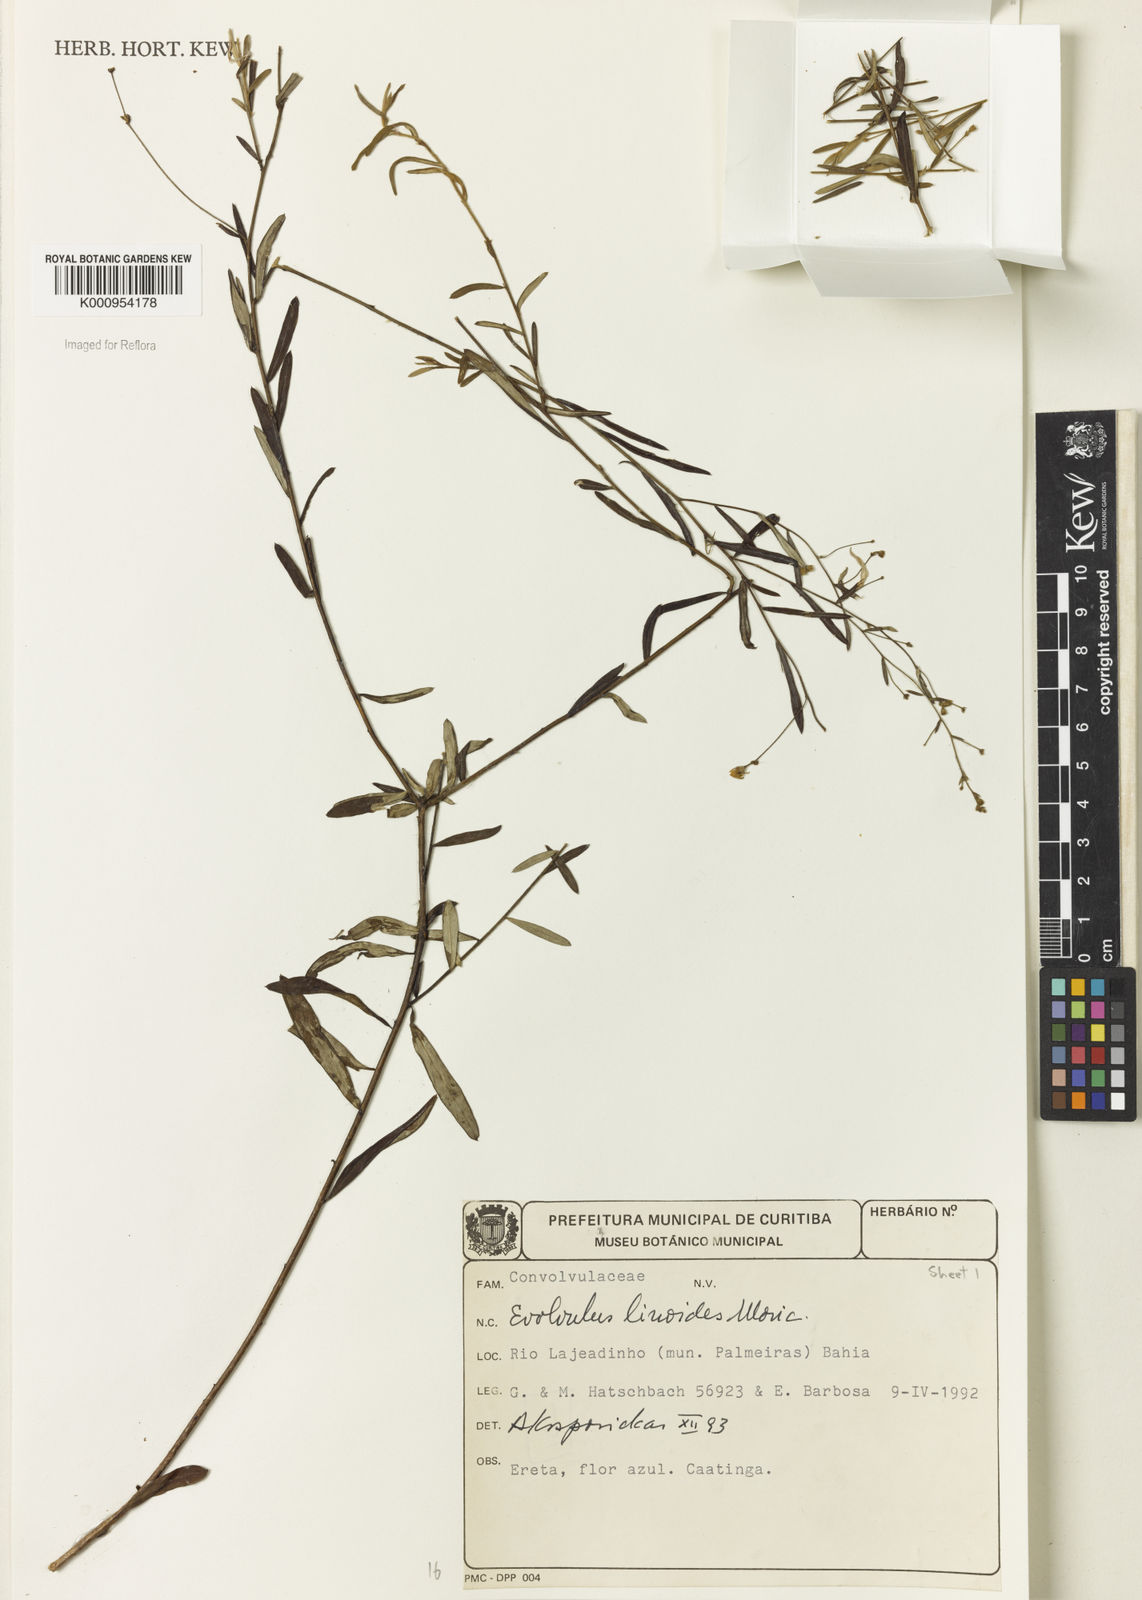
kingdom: Plantae
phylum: Tracheophyta
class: Magnoliopsida
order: Solanales
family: Convolvulaceae
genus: Evolvulus
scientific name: Evolvulus linoides
